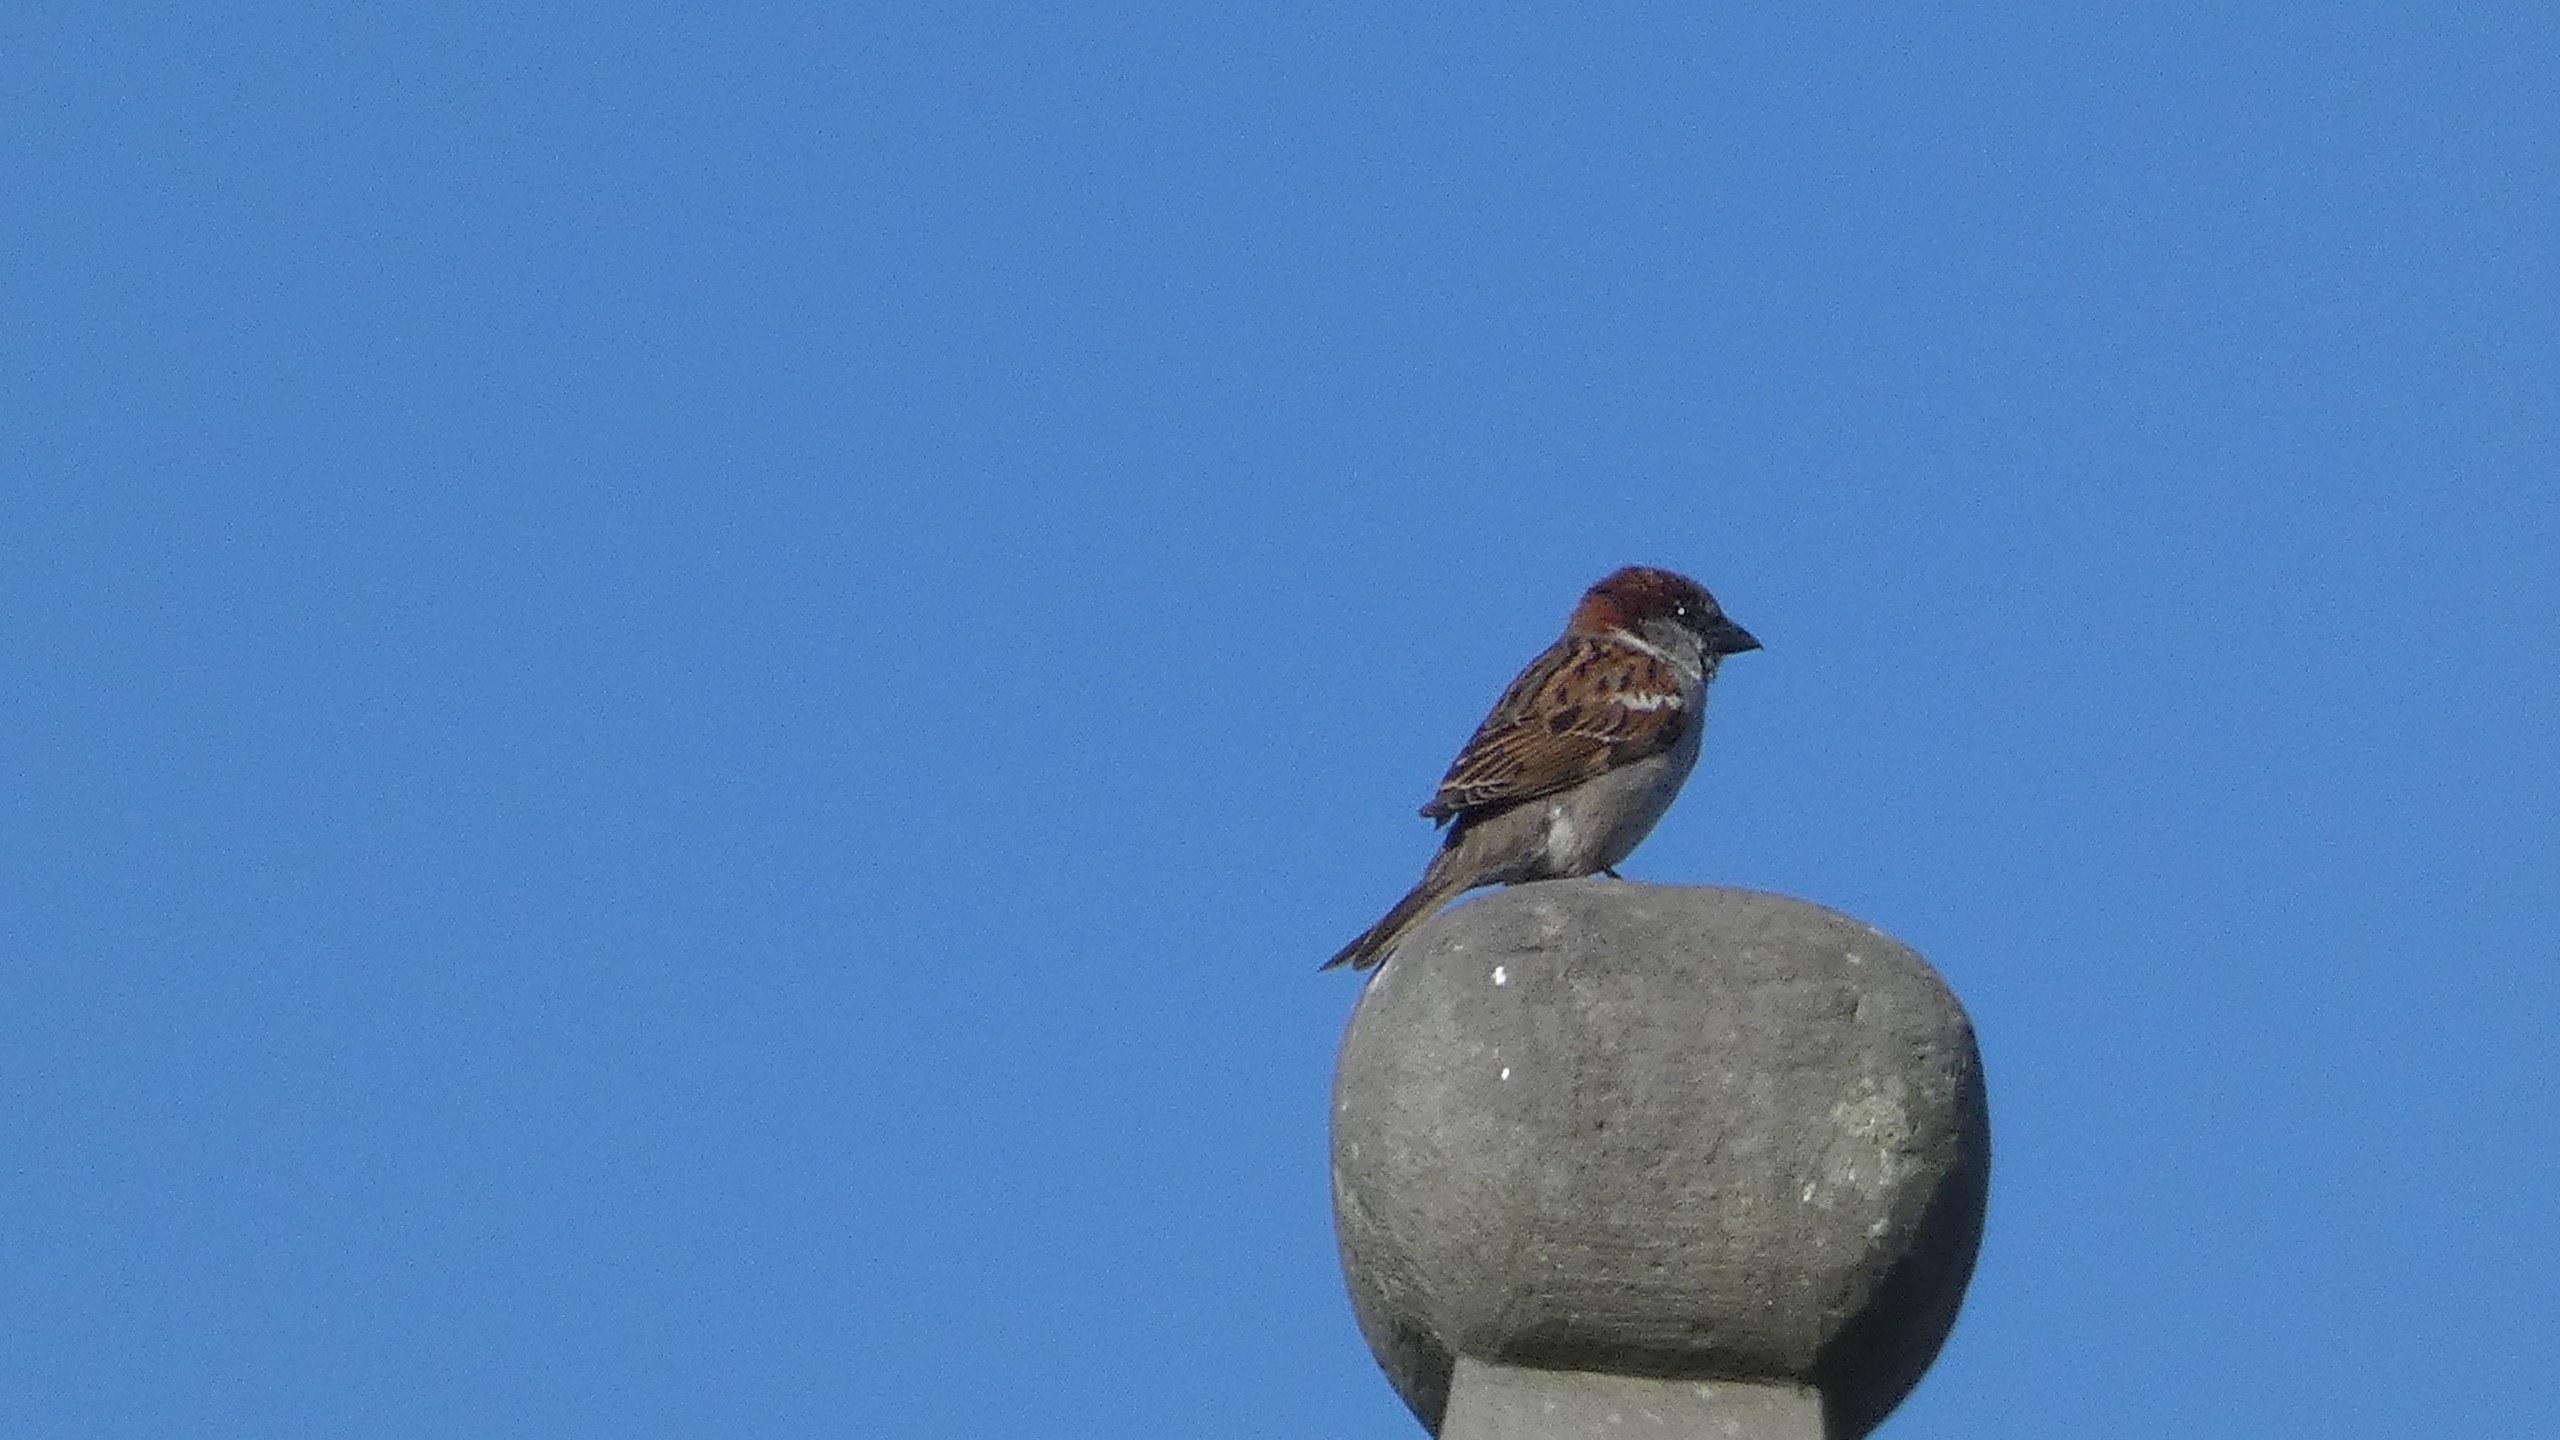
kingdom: Animalia
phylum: Chordata
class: Aves
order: Passeriformes
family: Passeridae
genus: Passer
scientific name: Passer domesticus
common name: Gråspurv
